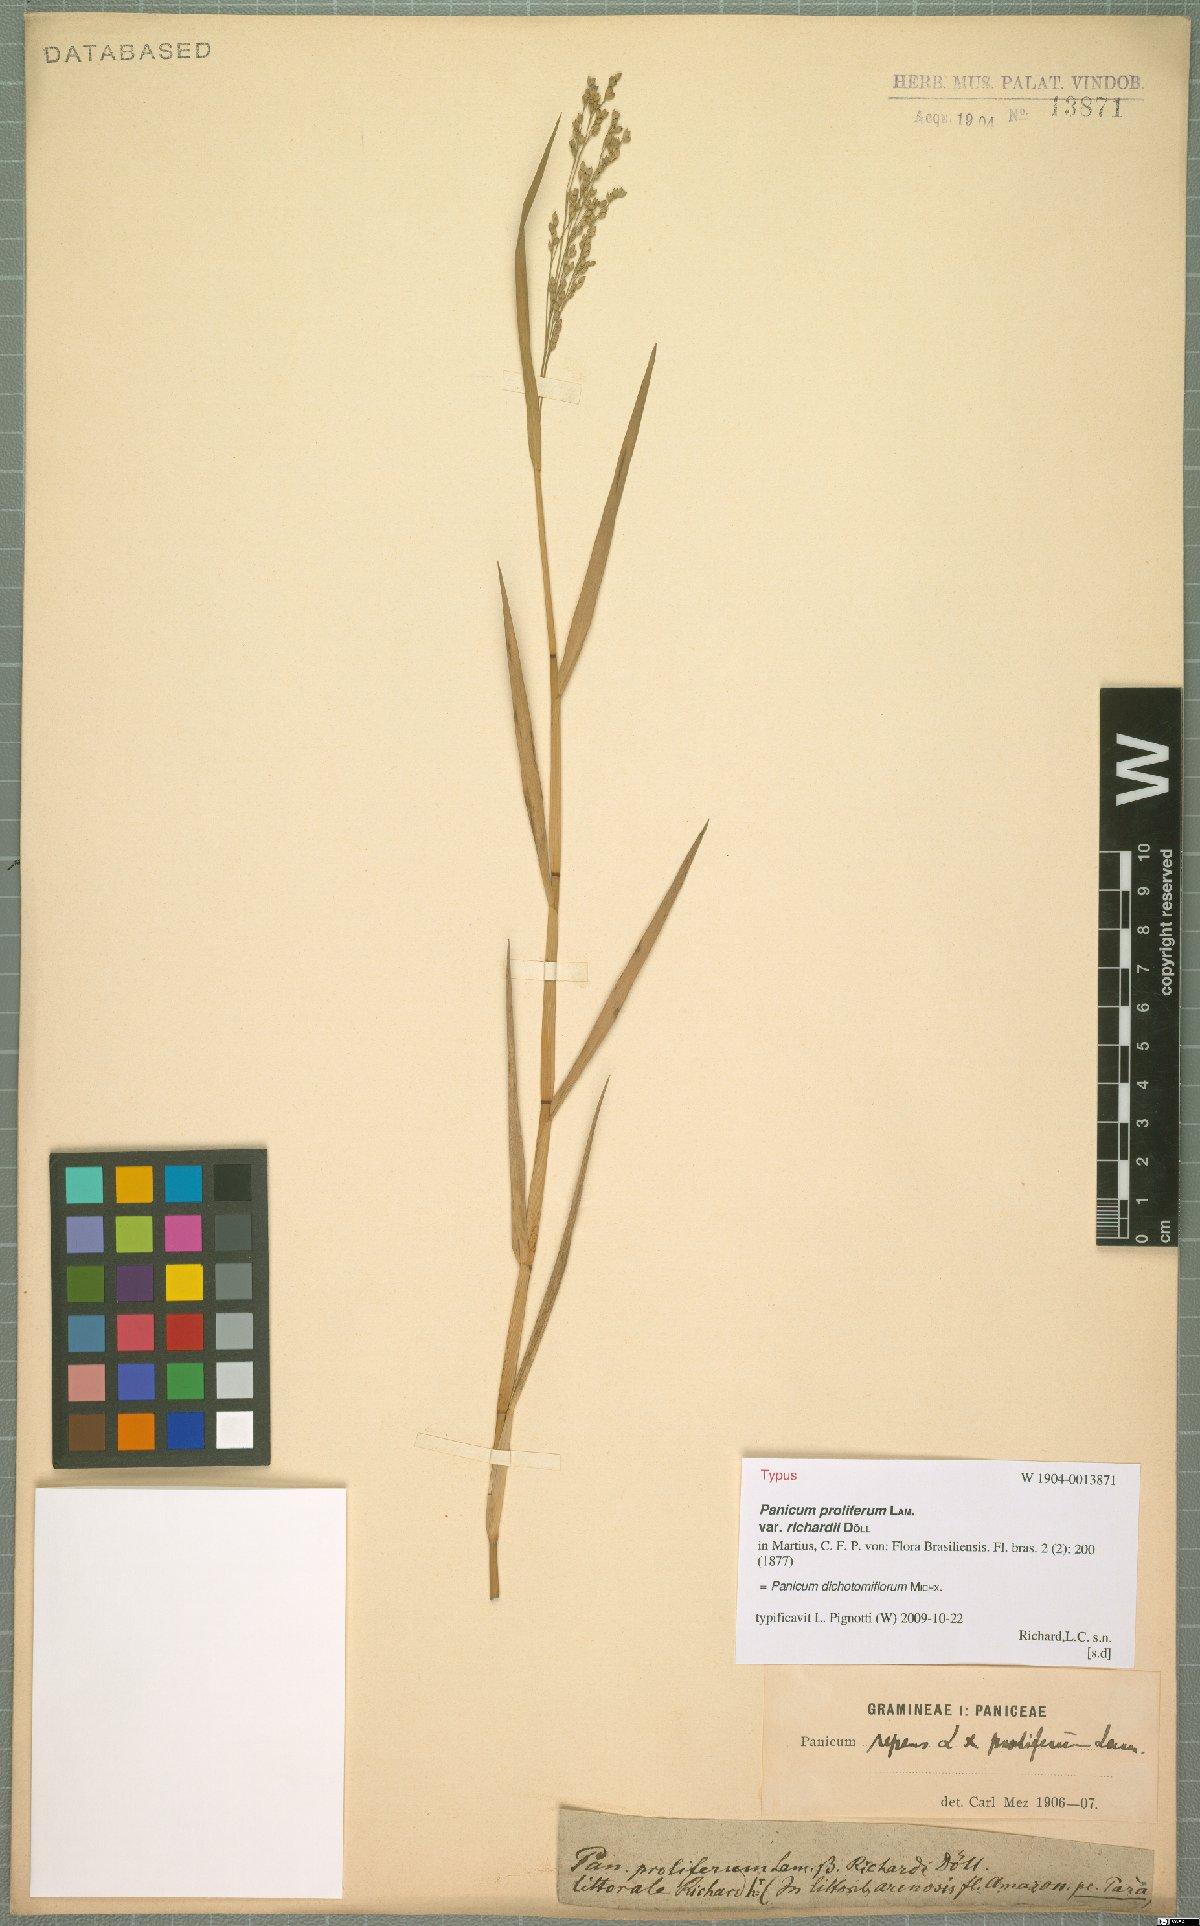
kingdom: Plantae
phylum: Tracheophyta
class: Liliopsida
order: Poales
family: Poaceae
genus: Panicum
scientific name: Panicum dichotomiflorum
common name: Autumn millet
